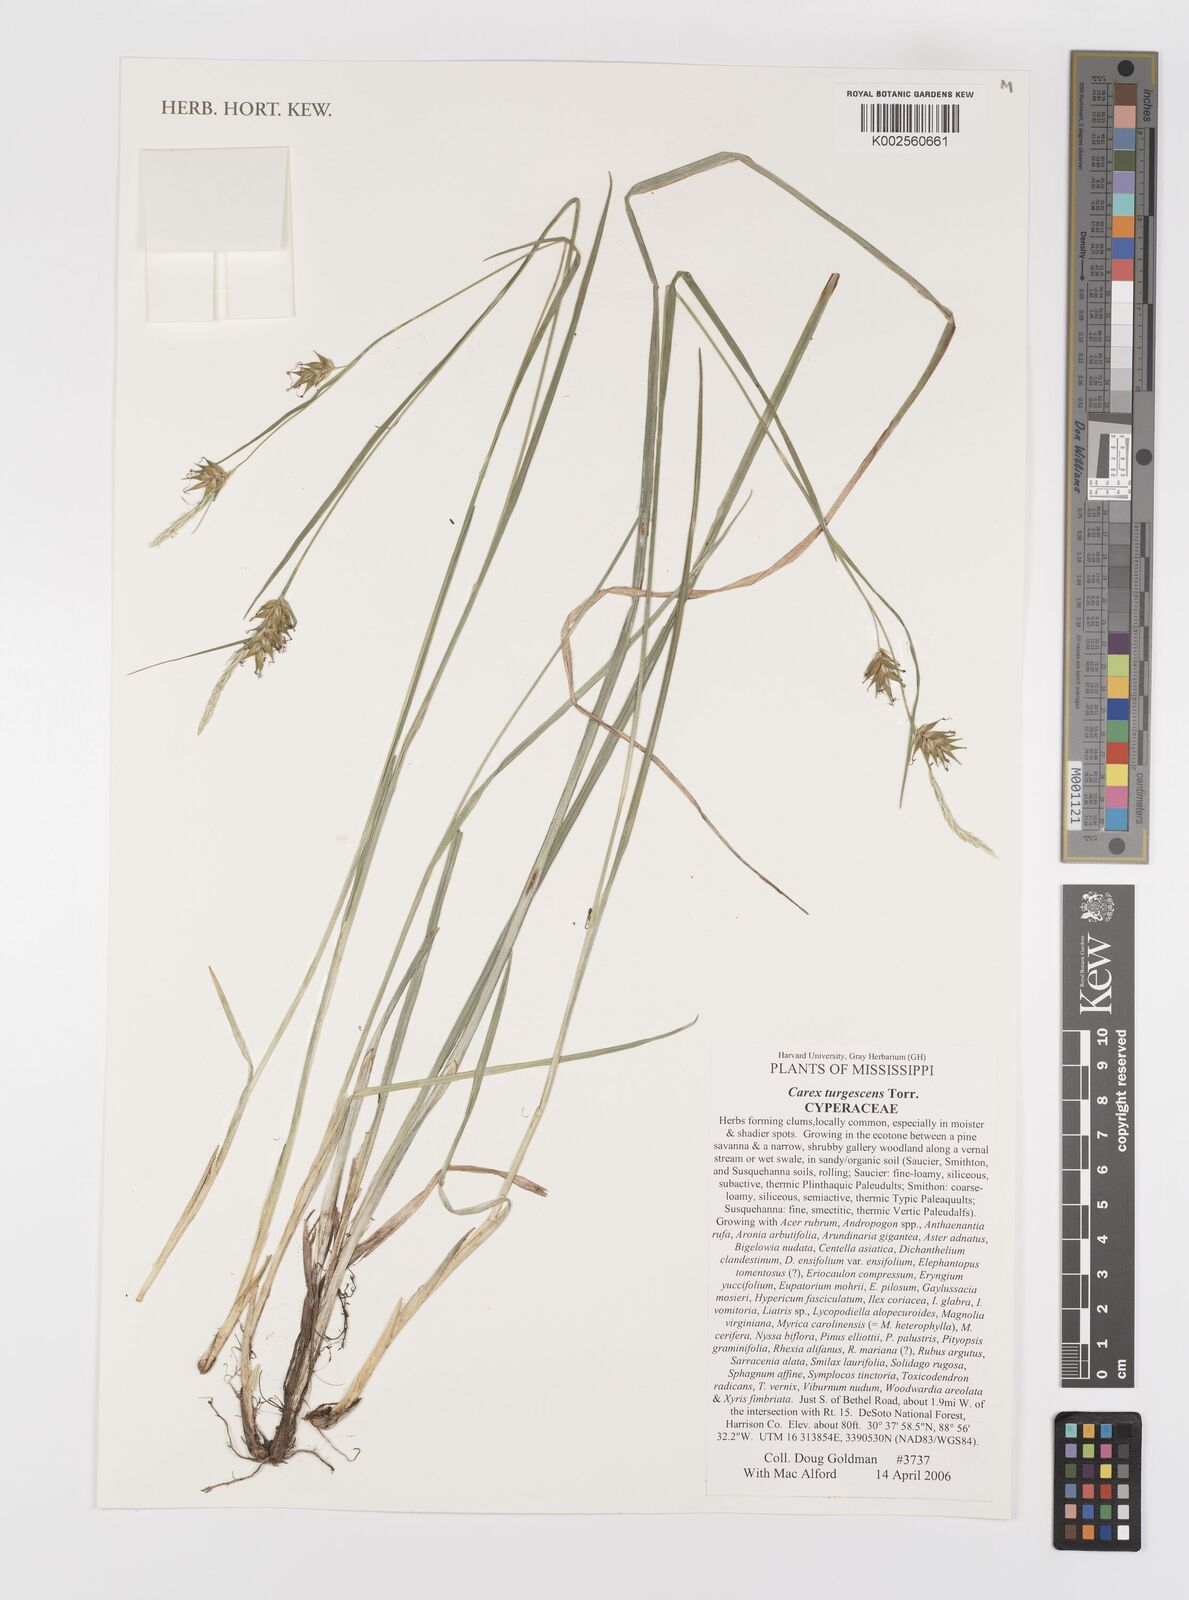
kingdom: Plantae
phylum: Tracheophyta
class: Liliopsida
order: Poales
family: Cyperaceae
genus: Carex
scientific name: Carex turgescens
